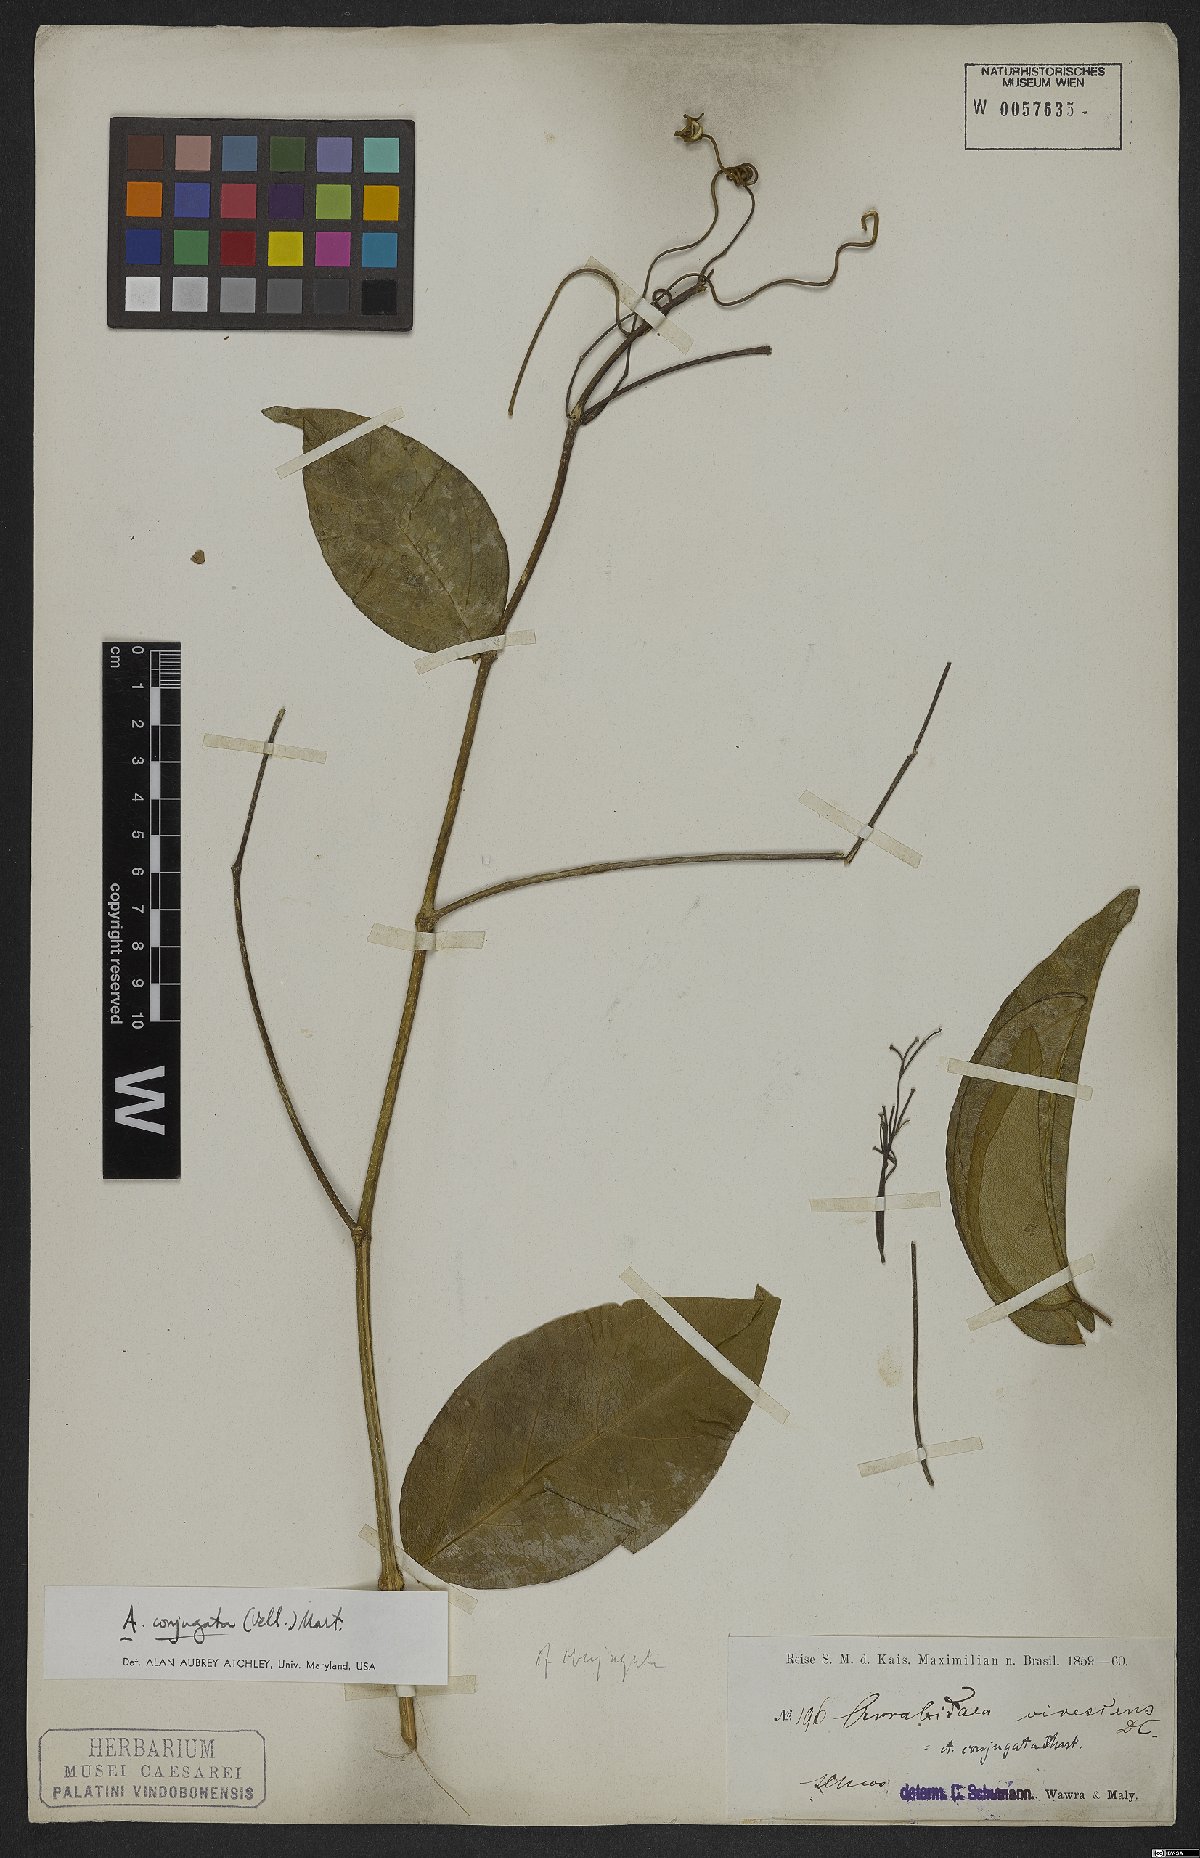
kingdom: Plantae
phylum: Tracheophyta
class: Magnoliopsida
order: Lamiales
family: Bignoniaceae
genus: Fridericia
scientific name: Fridericia conjugata
